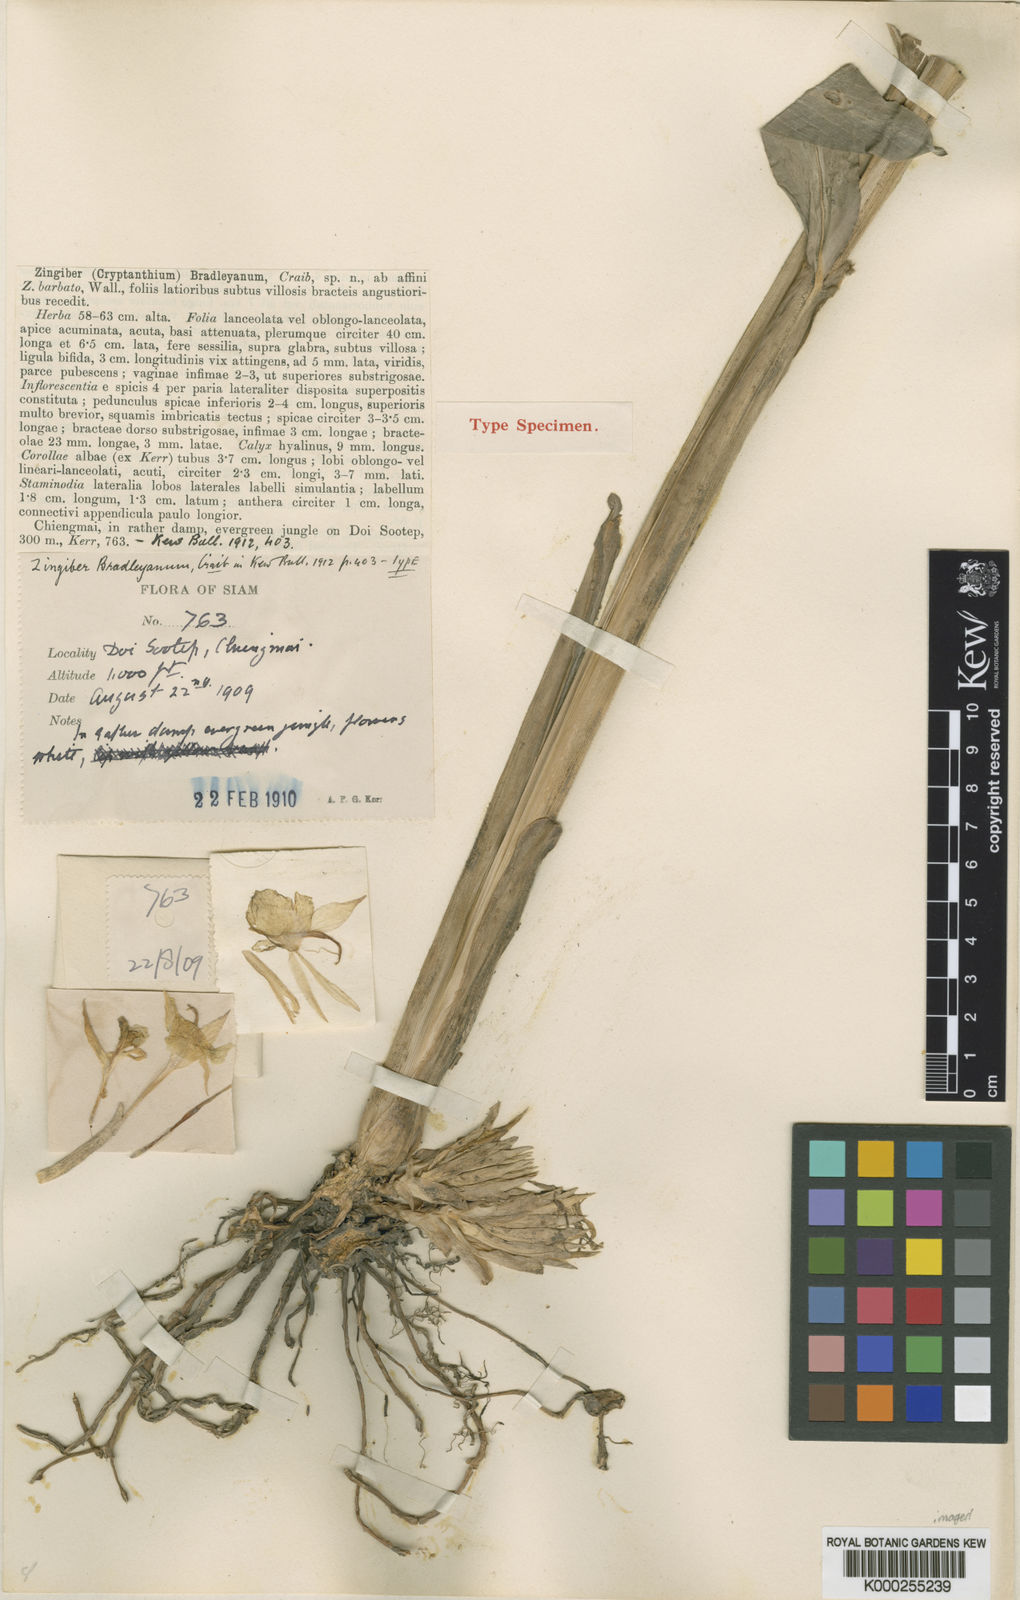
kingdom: Plantae
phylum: Tracheophyta
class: Liliopsida
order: Zingiberales
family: Zingiberaceae
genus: Zingiber
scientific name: Zingiber bradleyanum
